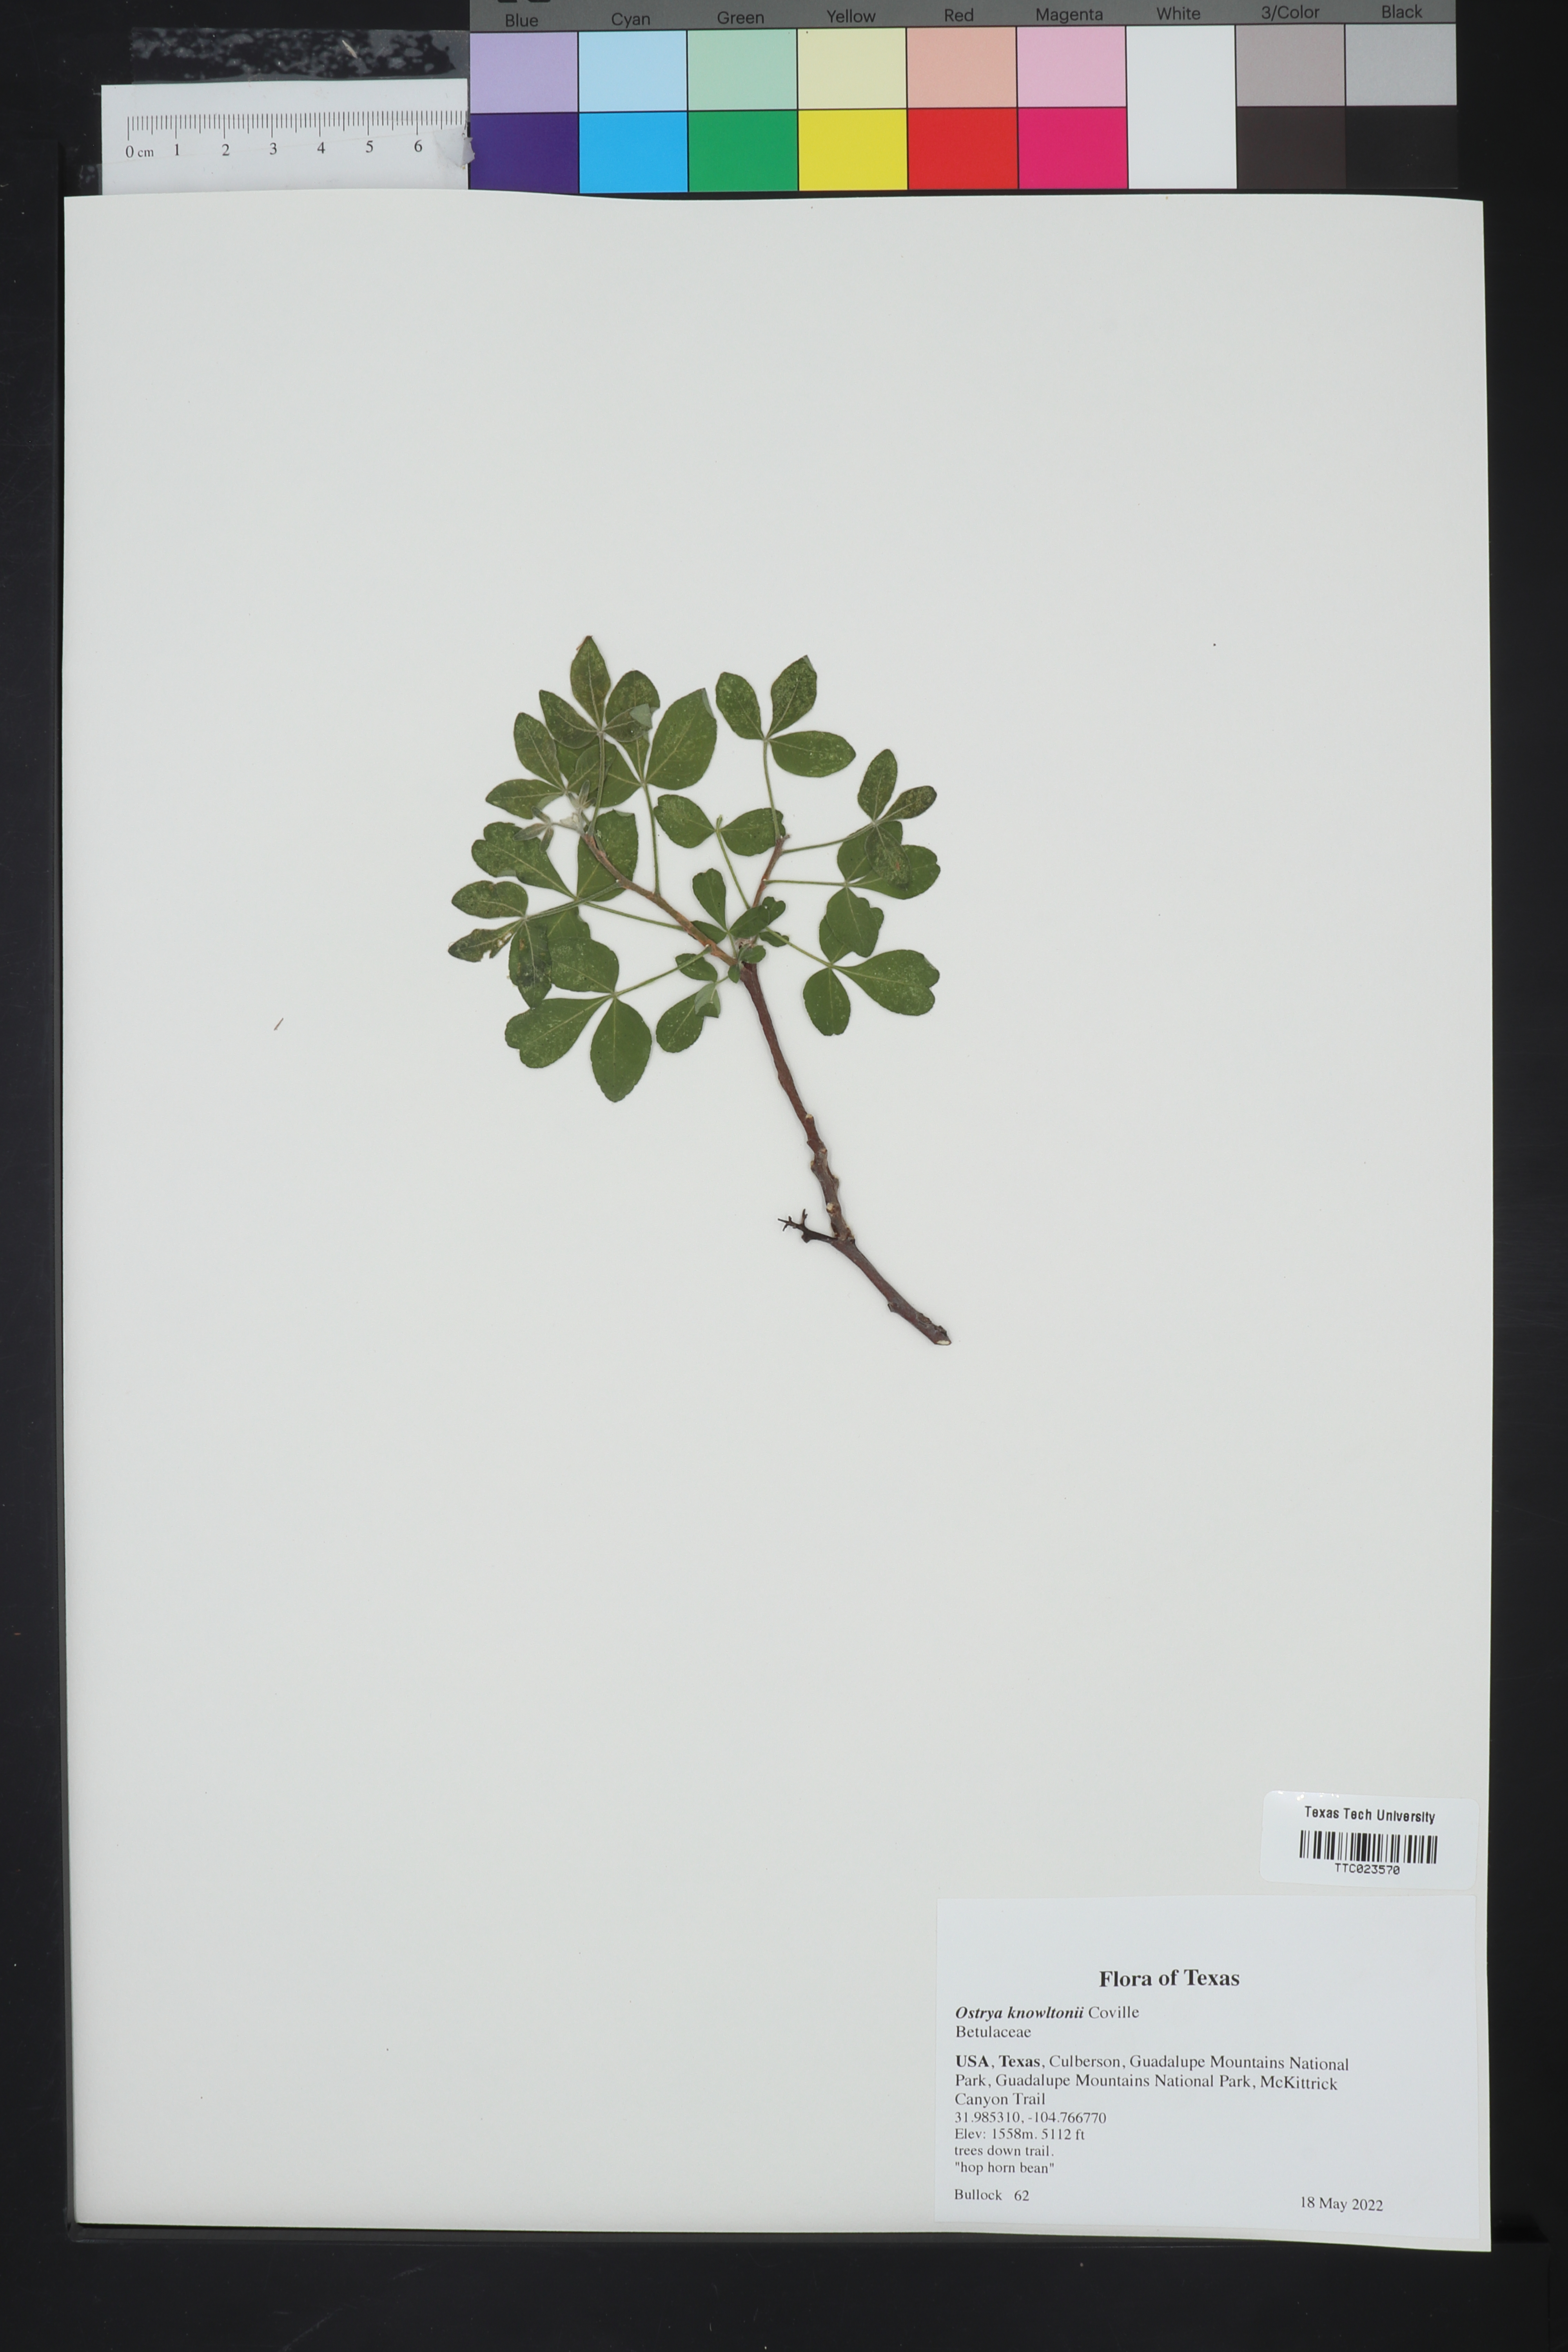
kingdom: Plantae
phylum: Tracheophyta
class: Magnoliopsida
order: Fagales
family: Betulaceae
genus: Ostrya
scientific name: Ostrya knowltonii
